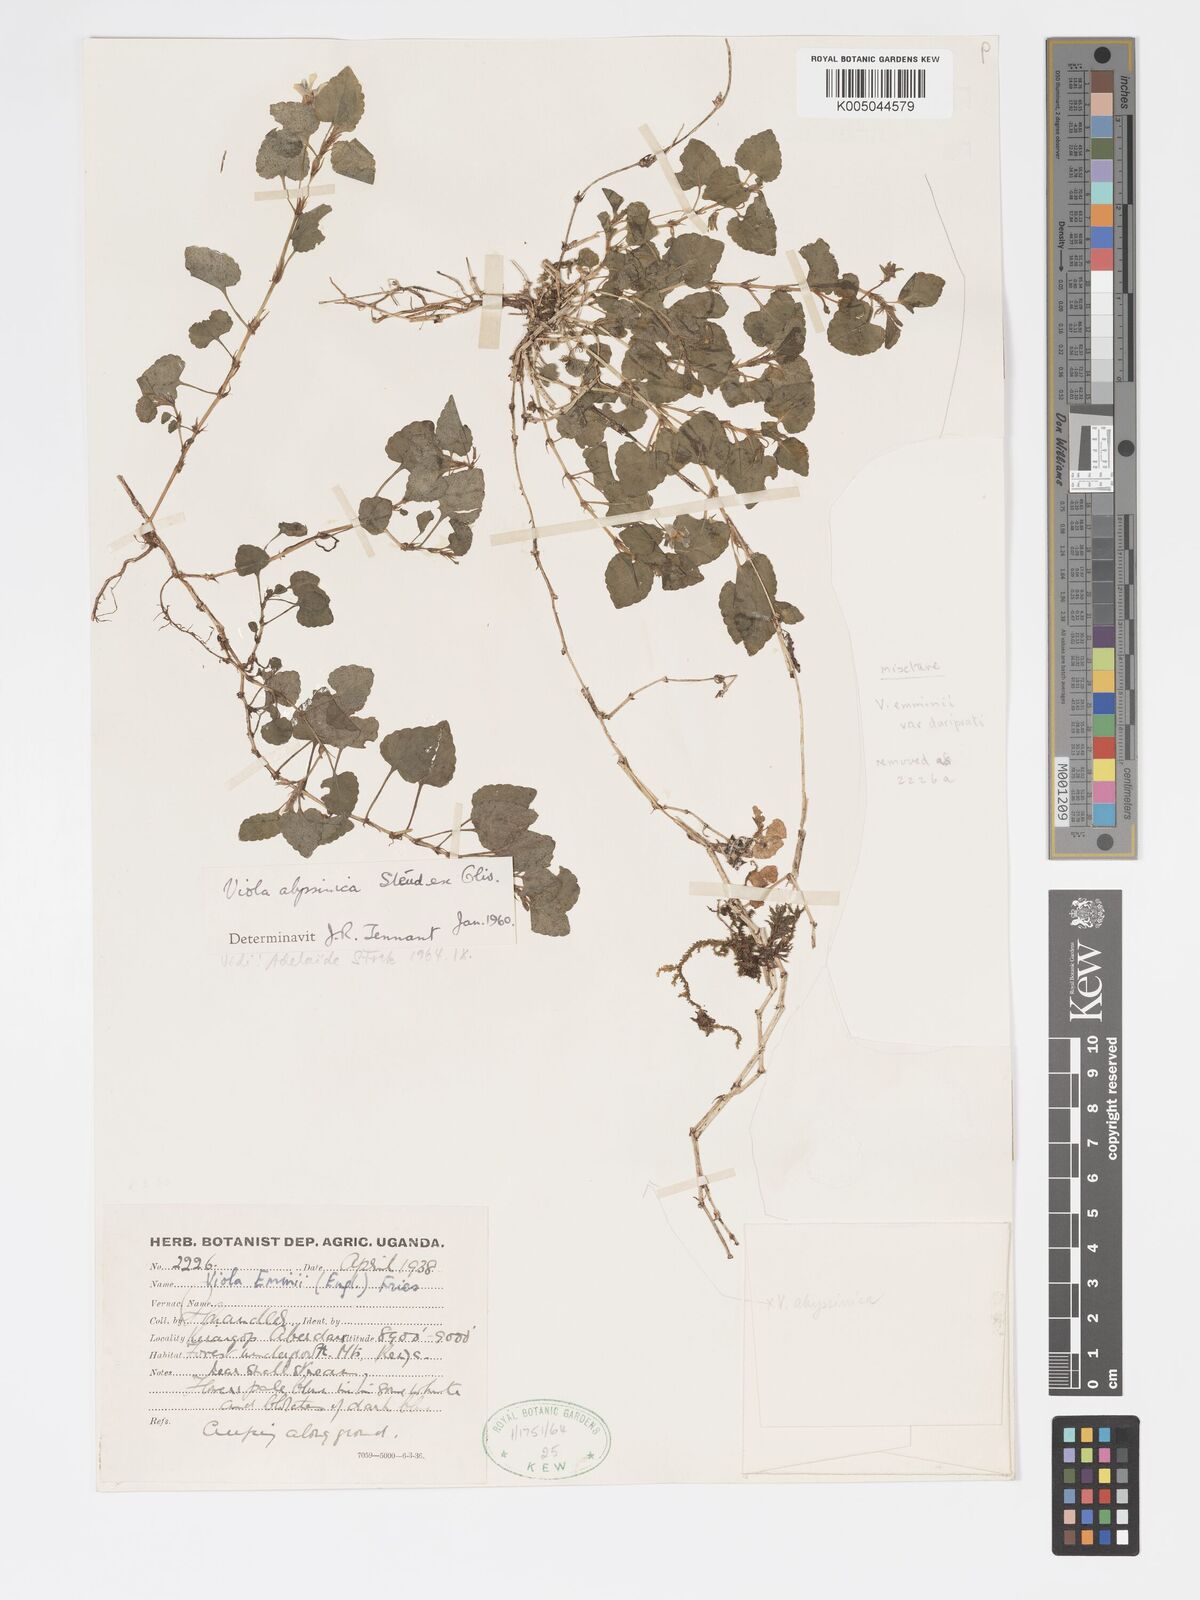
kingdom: Plantae
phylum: Tracheophyta
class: Magnoliopsida
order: Malpighiales
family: Violaceae
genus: Viola
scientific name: Viola abyssinica
